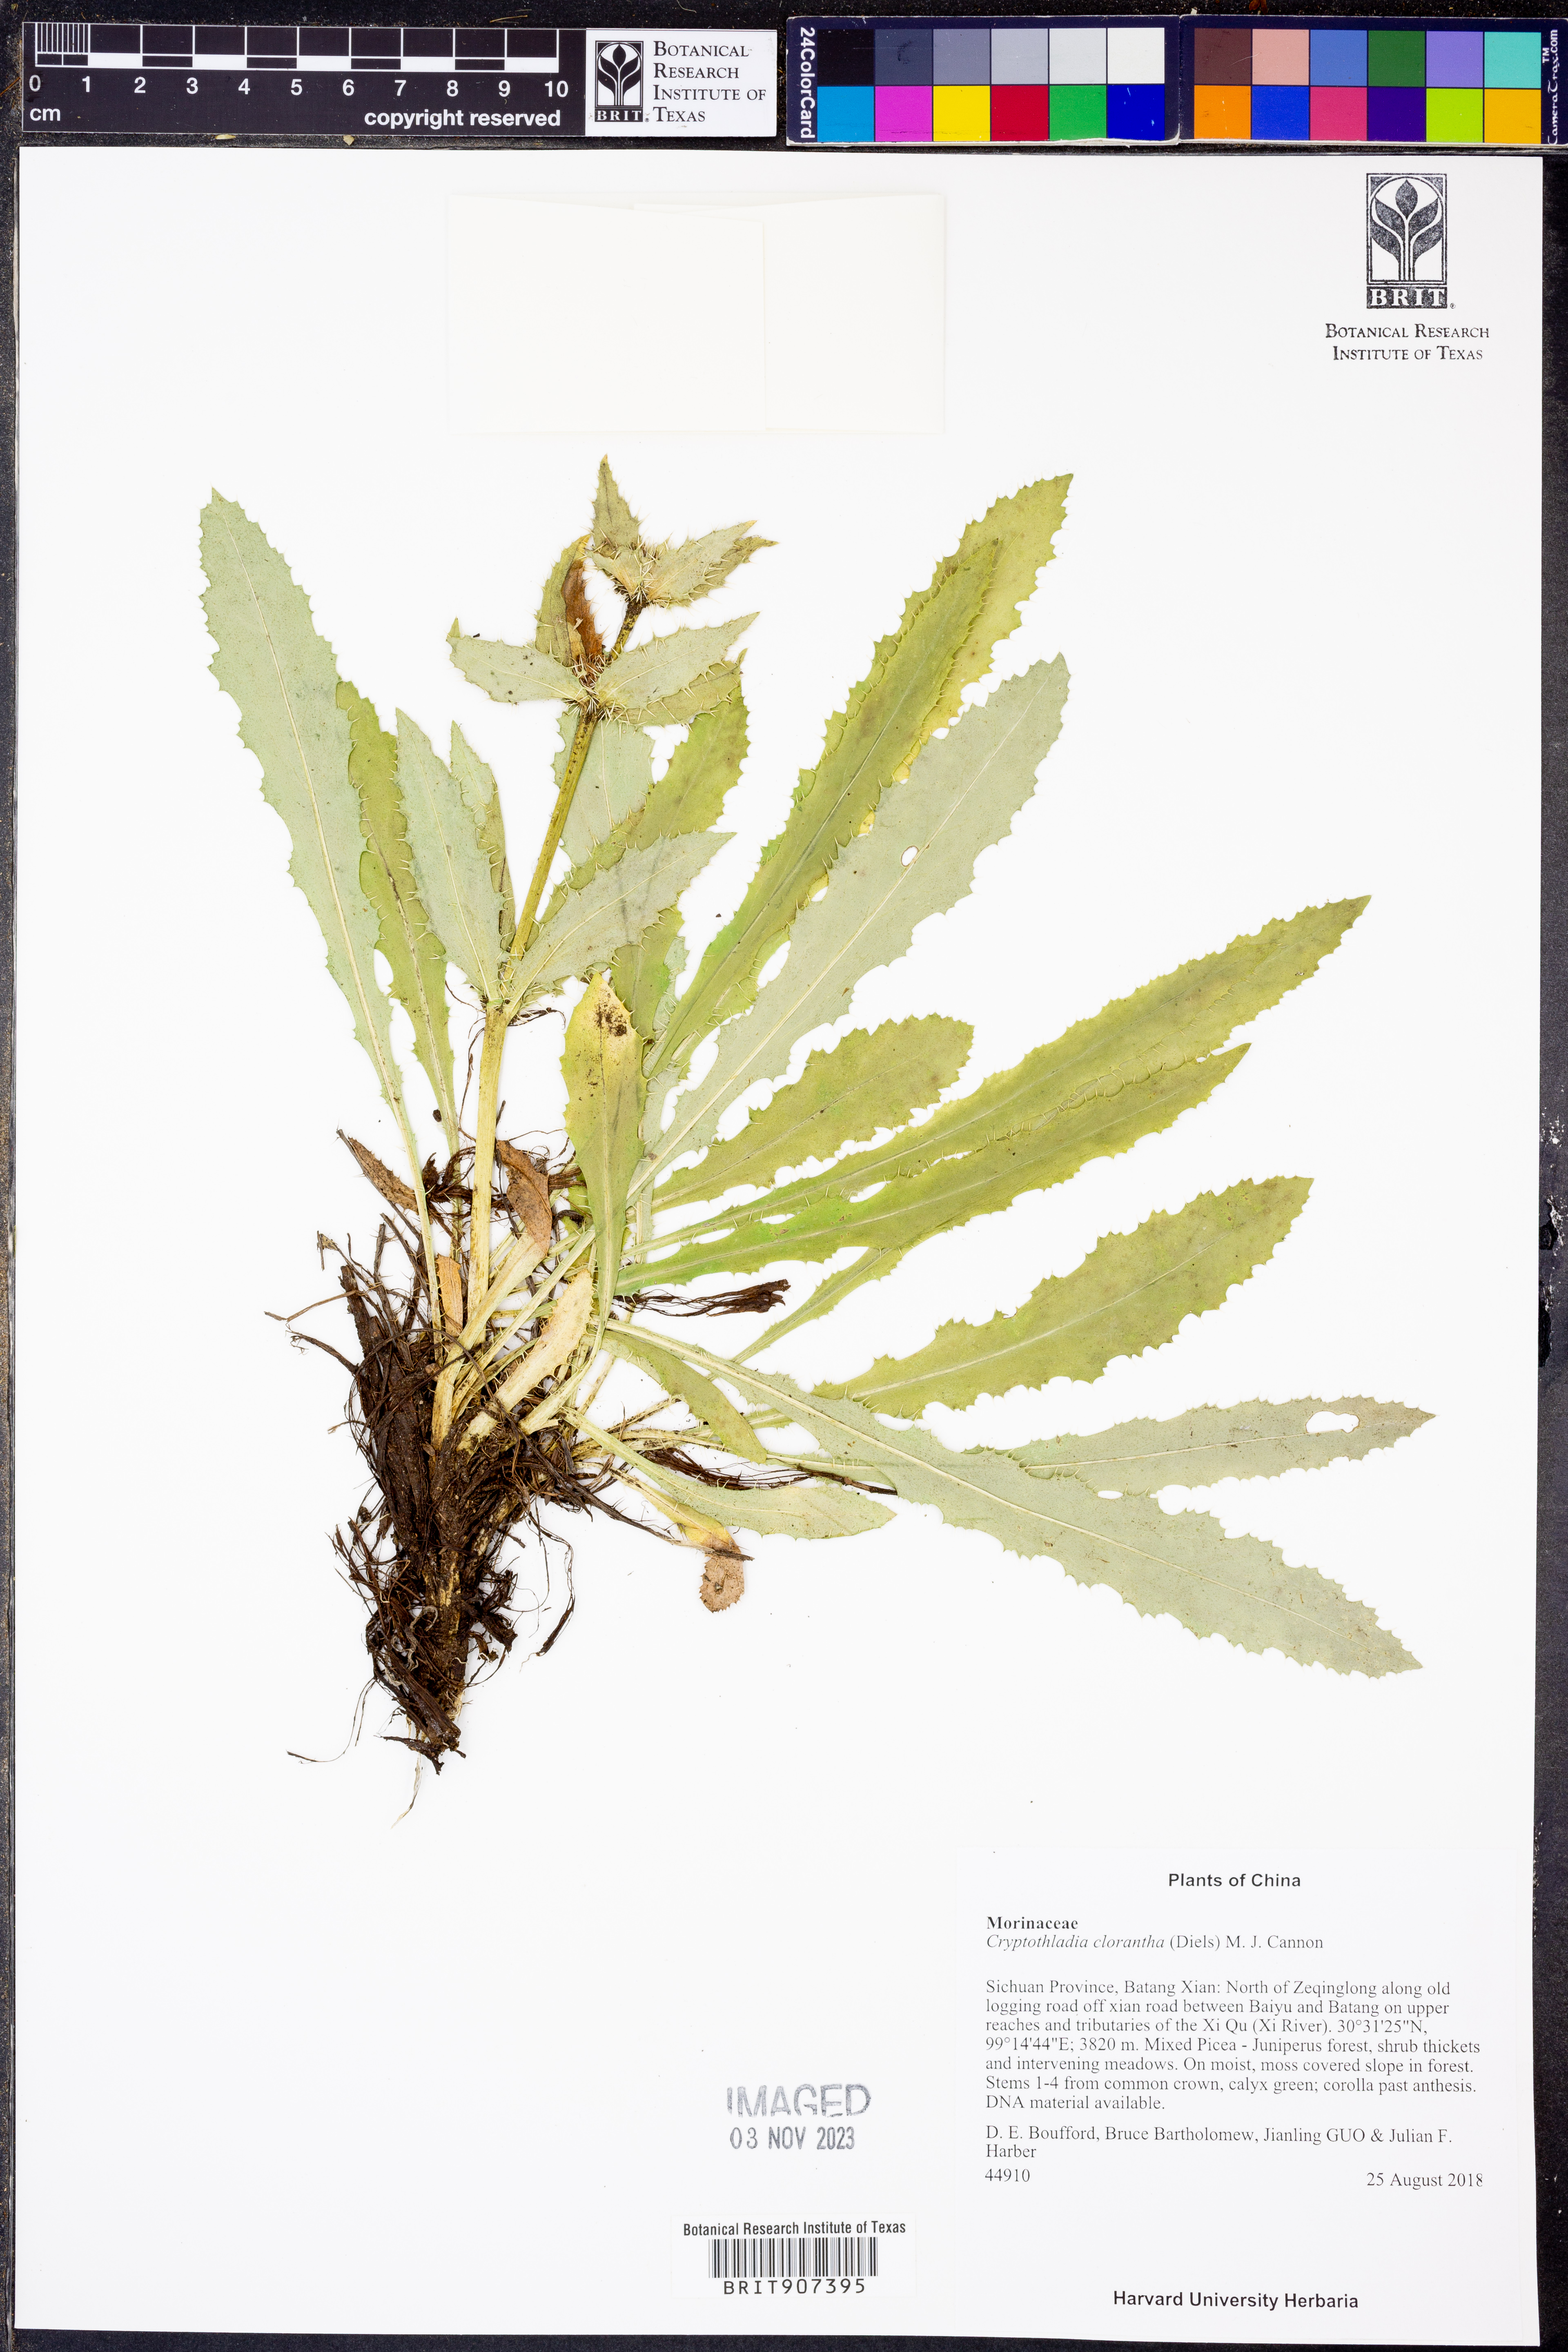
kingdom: Plantae
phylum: Tracheophyta
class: Magnoliopsida
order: Dipsacales
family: Caprifoliaceae
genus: Cryptothladia
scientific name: Cryptothladia
